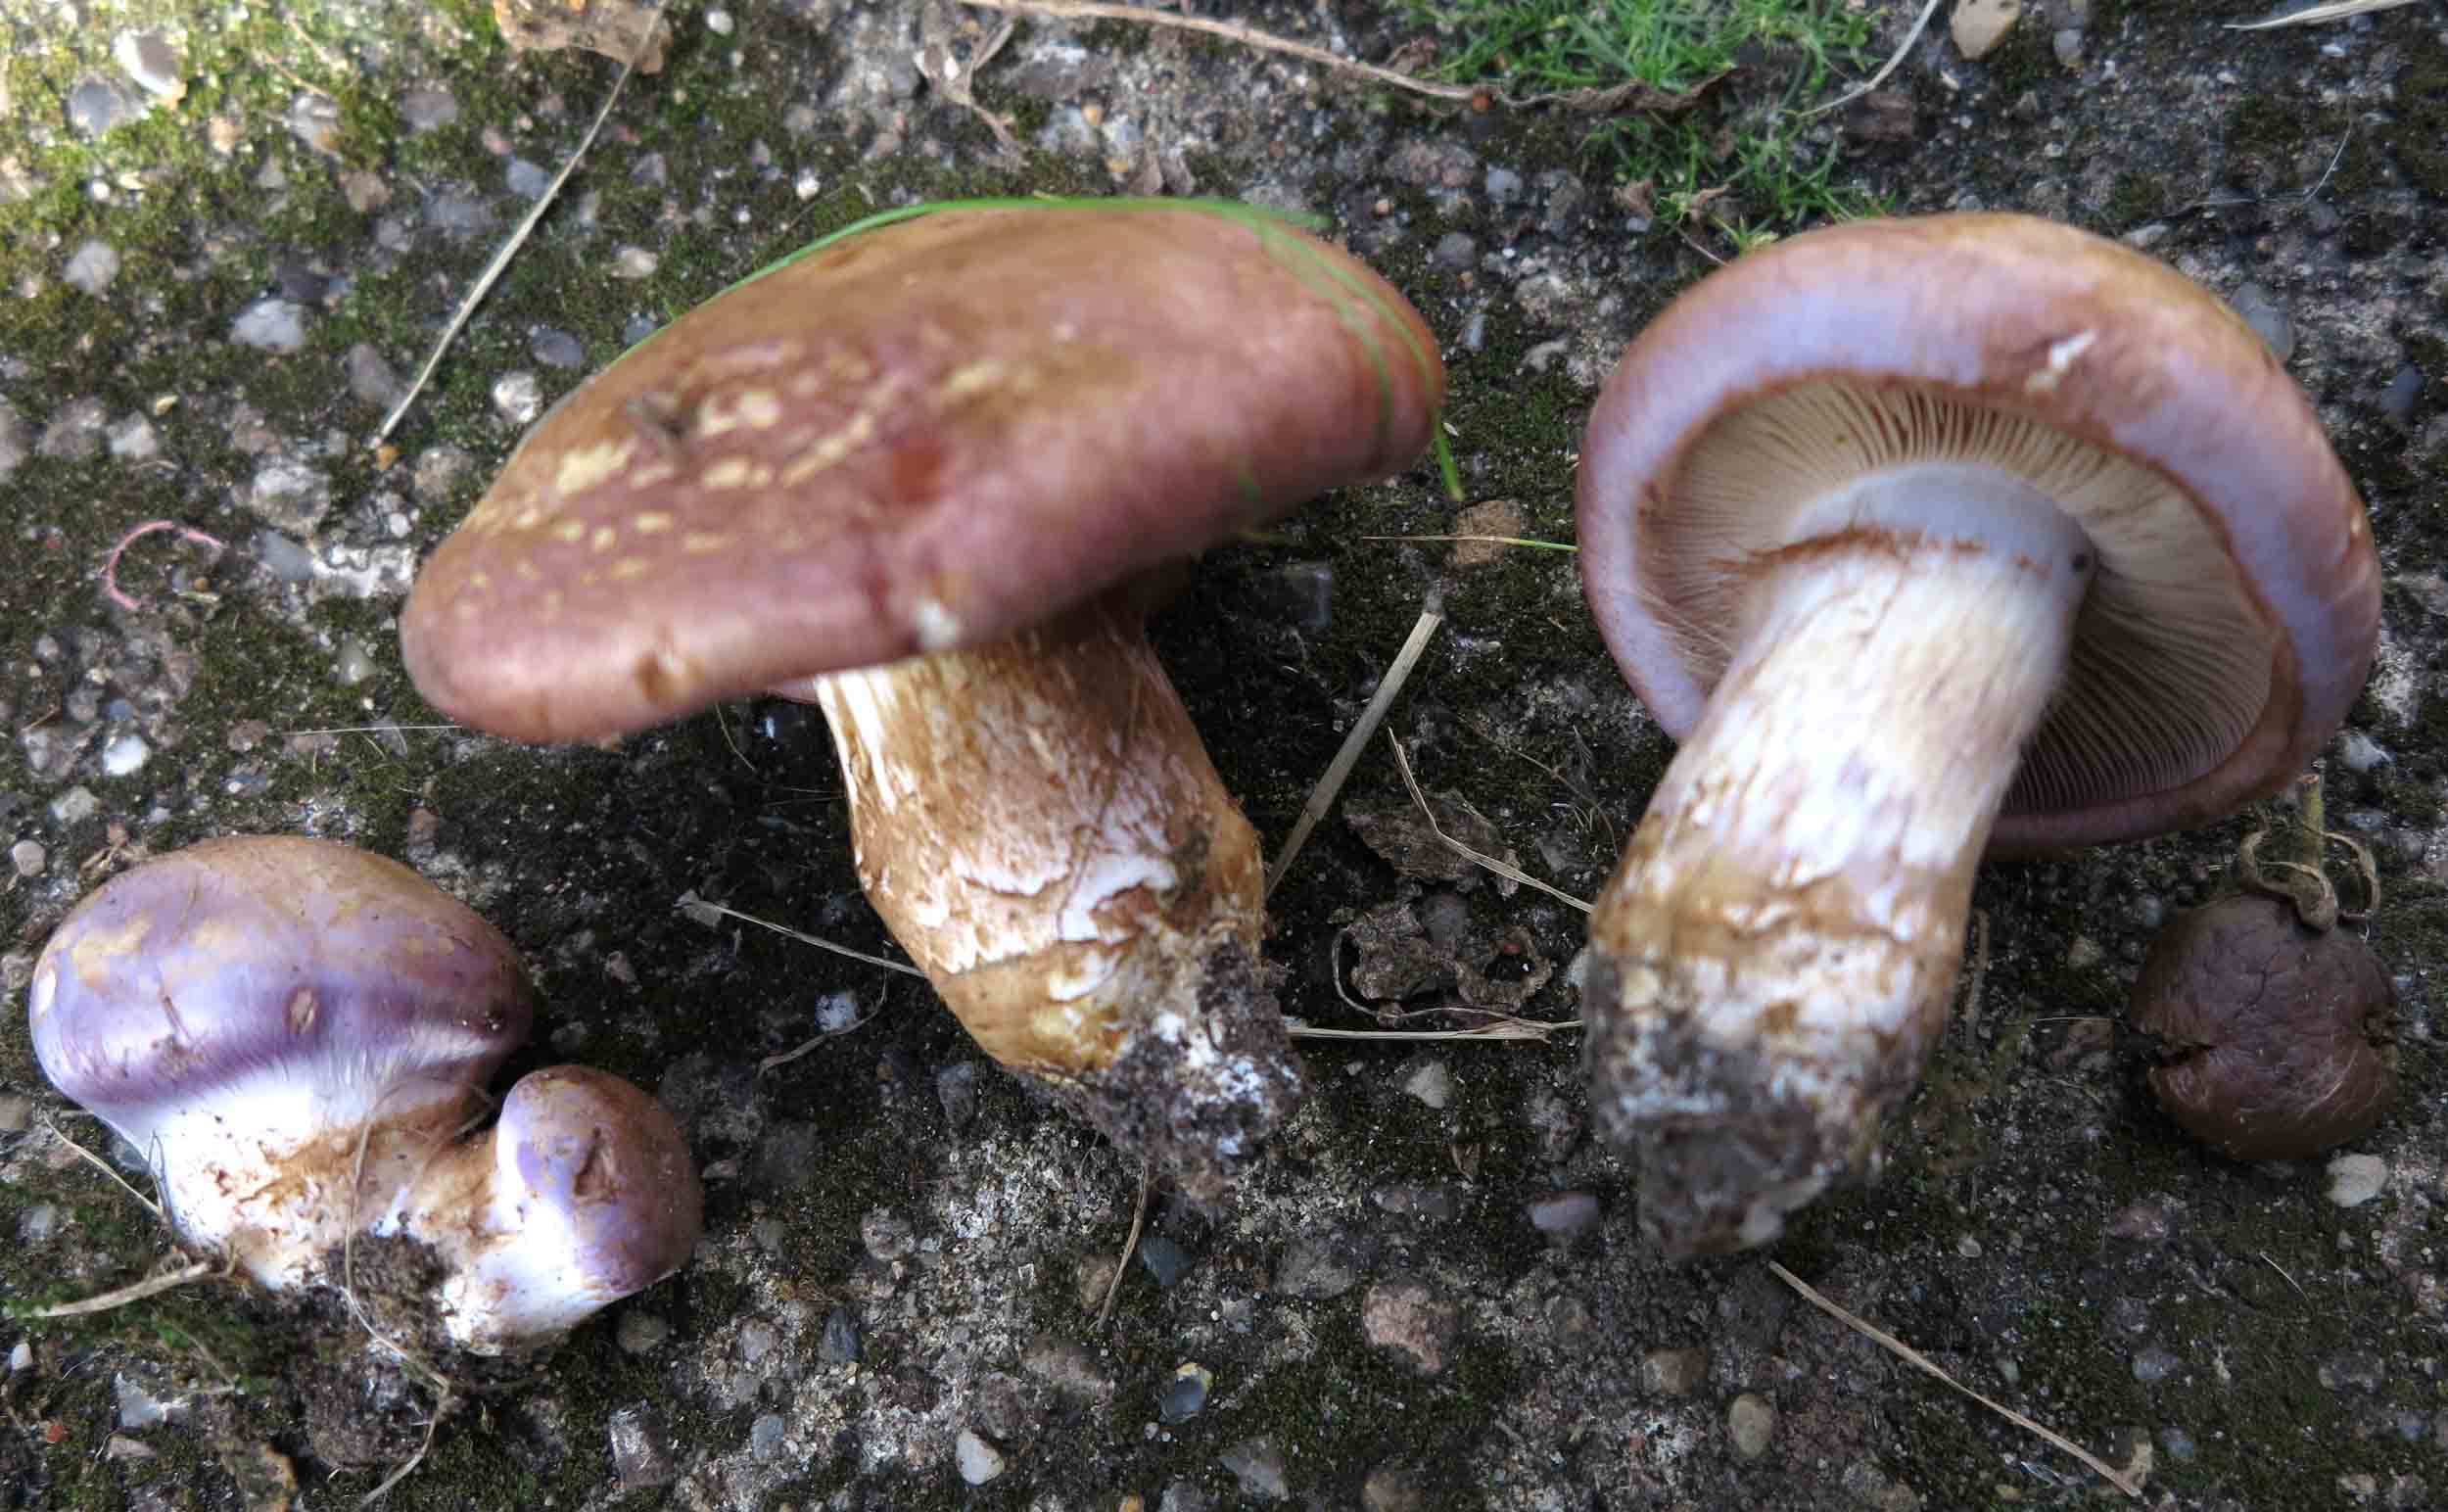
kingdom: Fungi
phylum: Basidiomycota
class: Agaricomycetes
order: Agaricales
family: Cortinariaceae
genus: Phlegmacium
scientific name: Phlegmacium balteatocumatile
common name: violettrådet slørhat
